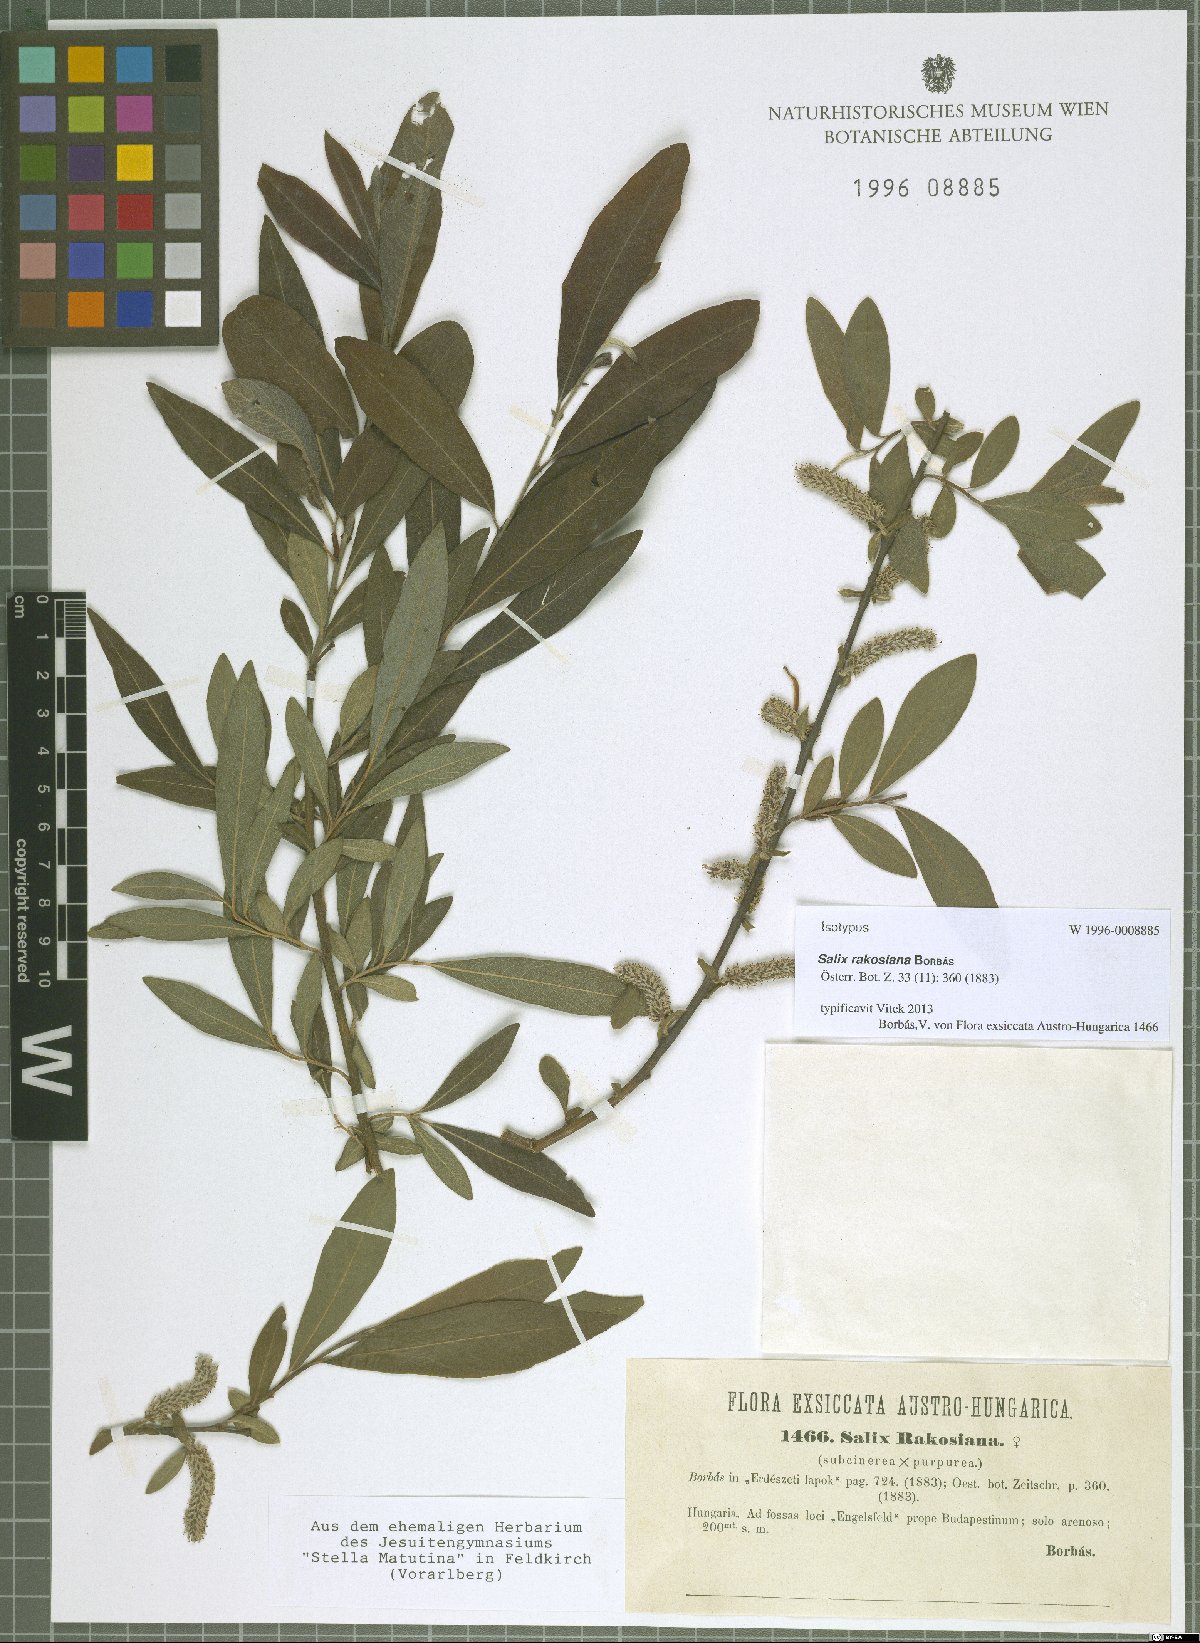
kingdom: Plantae
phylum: Tracheophyta
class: Magnoliopsida
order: Malpighiales
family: Salicaceae
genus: Salix
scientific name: Salix austriaca
